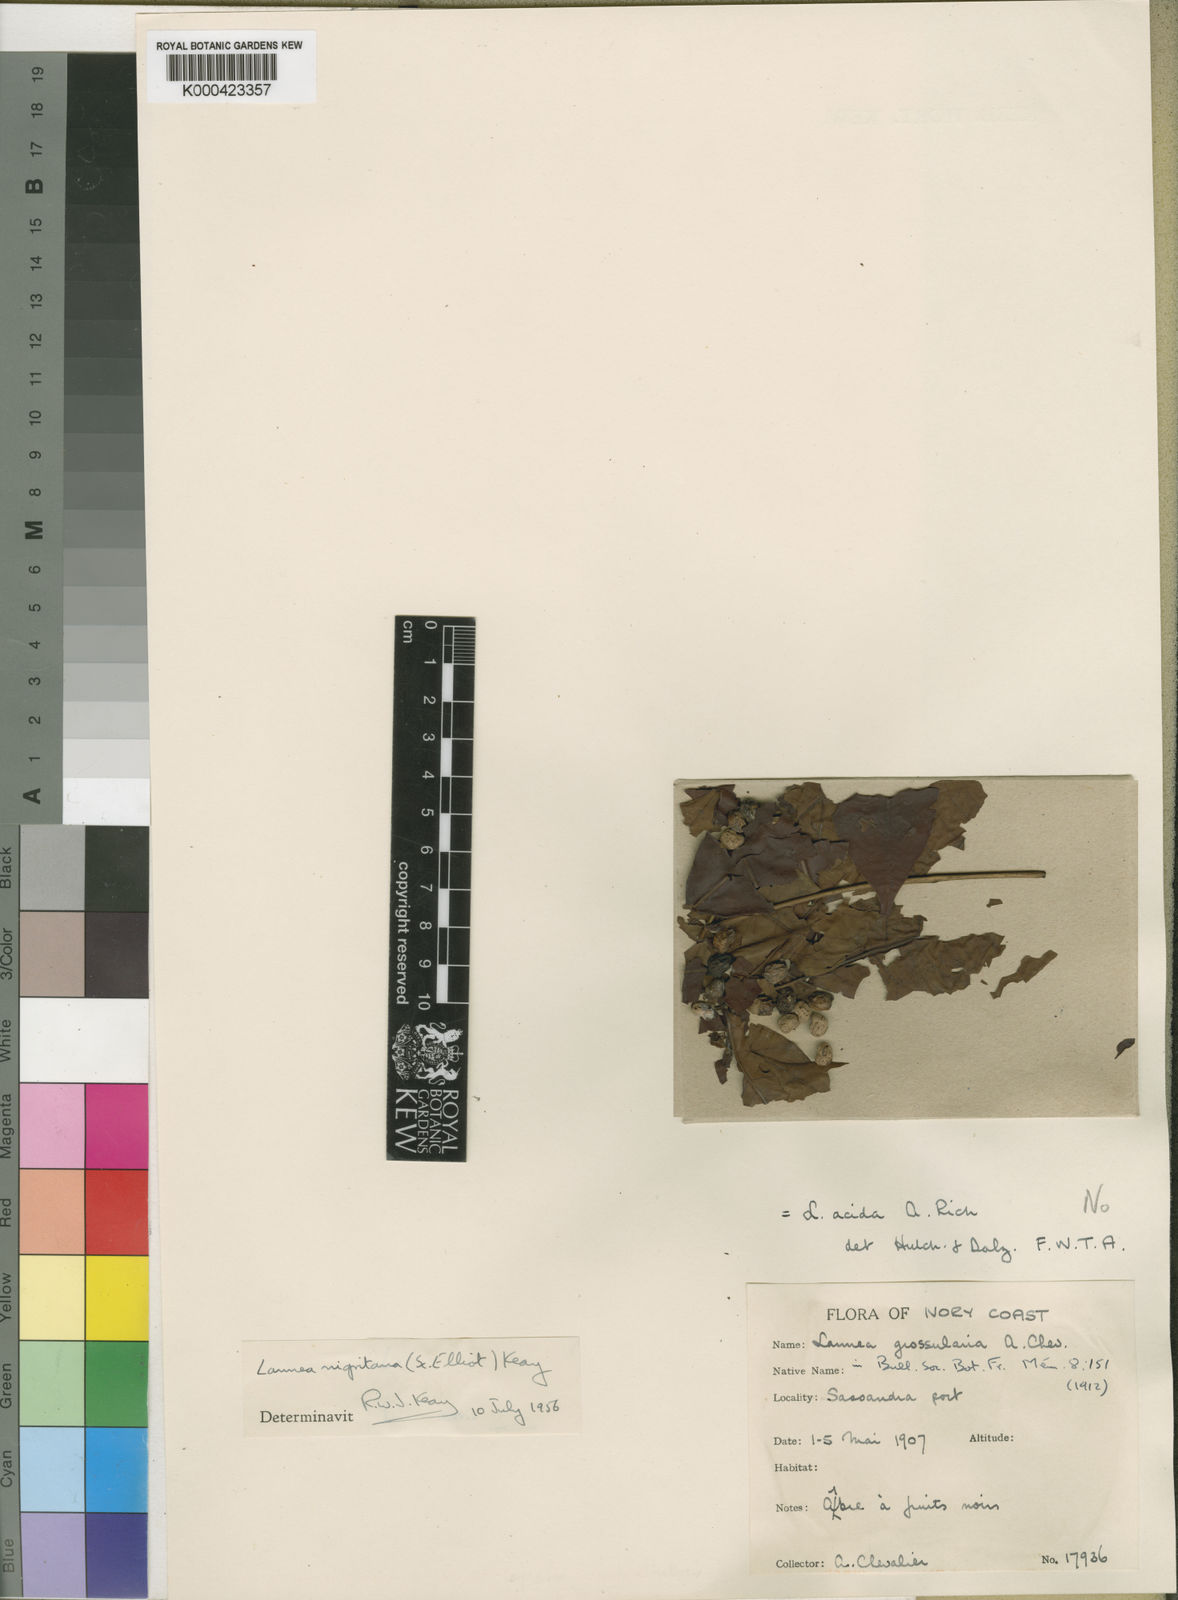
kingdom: Plantae
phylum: Tracheophyta
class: Magnoliopsida
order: Sapindales
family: Anacardiaceae
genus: Lannea
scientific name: Lannea nigritana
